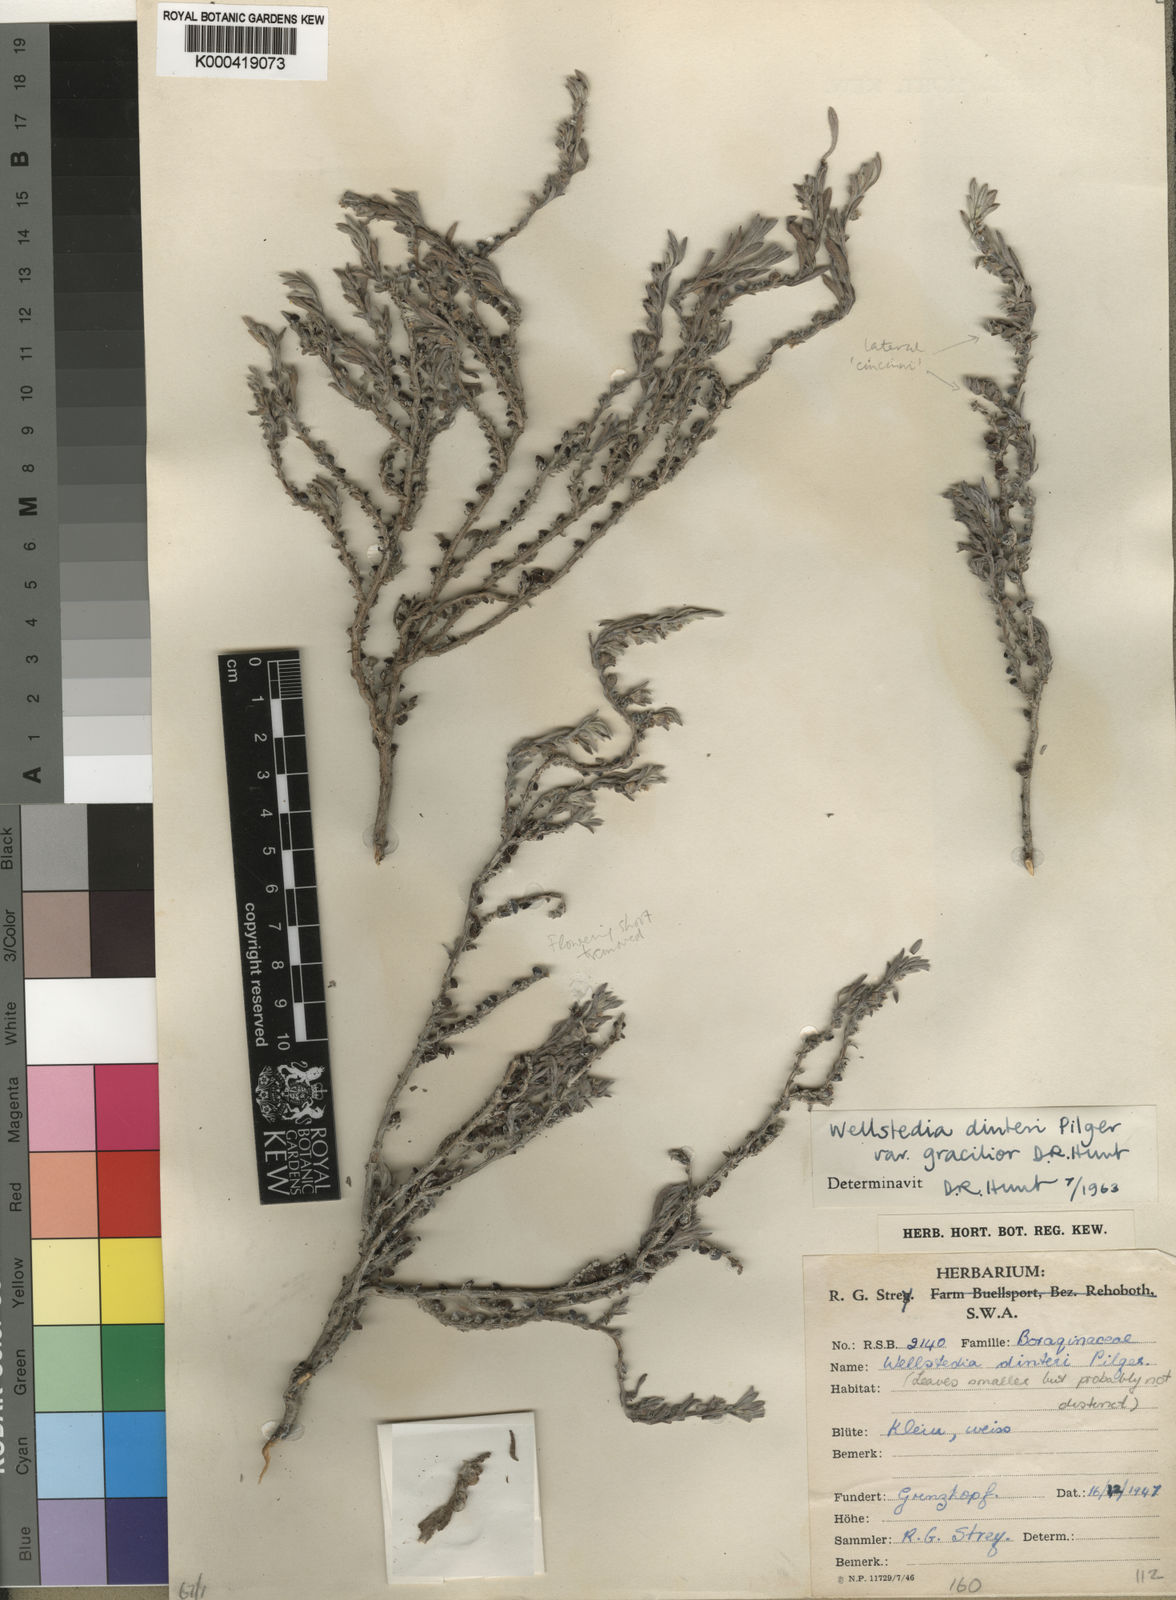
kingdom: Plantae
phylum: Tracheophyta
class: Magnoliopsida
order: Boraginales
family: Wellstediaceae
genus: Wellstedia
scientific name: Wellstedia dinteri
